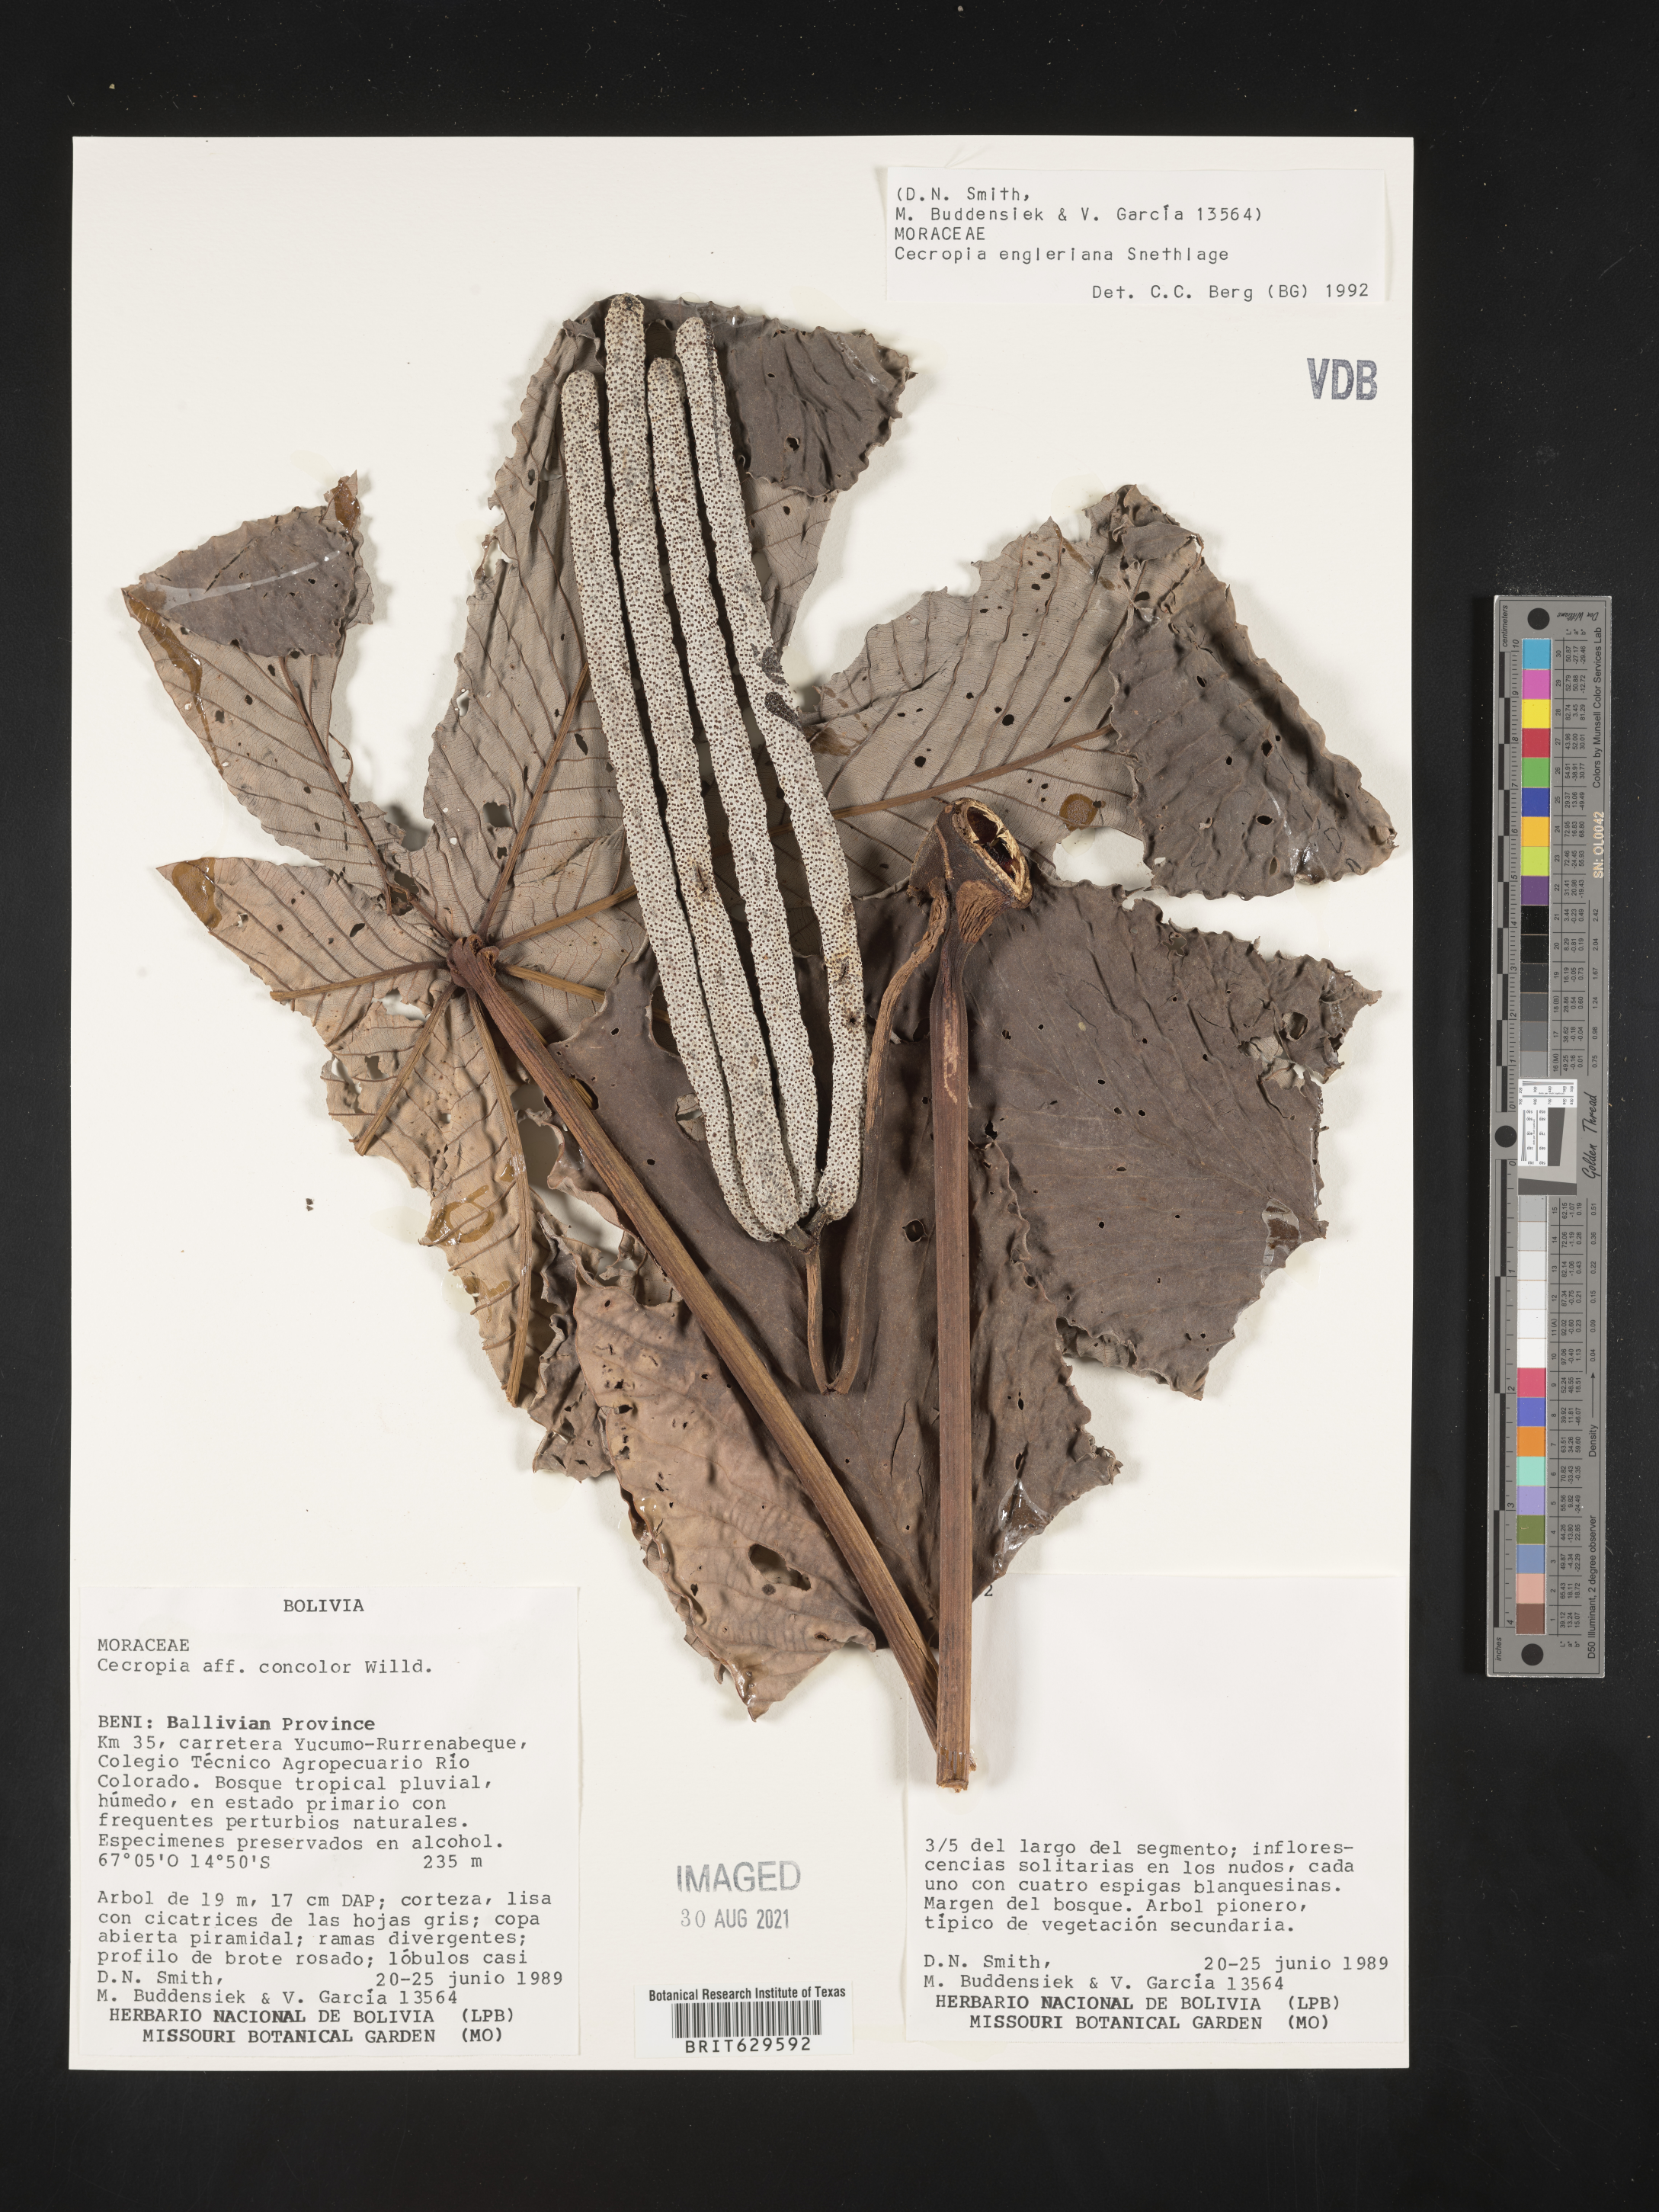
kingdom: Plantae
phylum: Tracheophyta
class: Magnoliopsida
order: Rosales
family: Urticaceae
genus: Cecropia
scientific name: Cecropia
